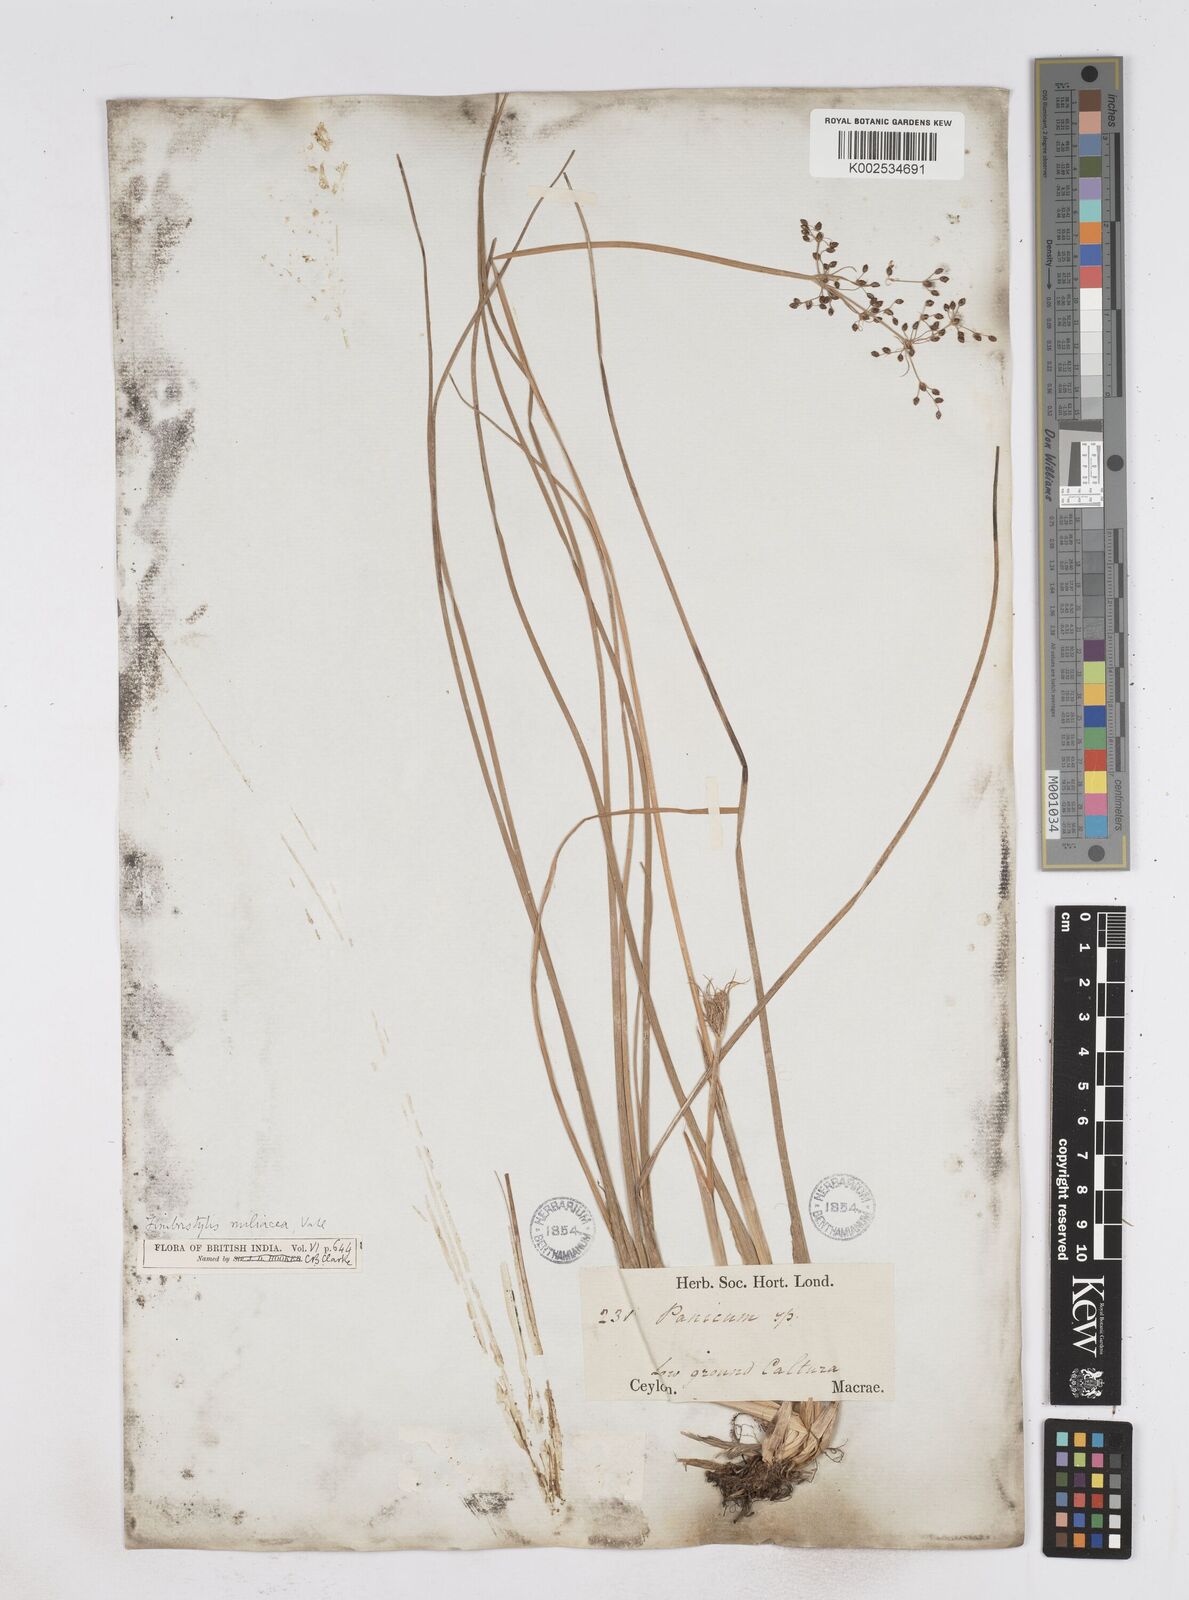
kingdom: Plantae
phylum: Tracheophyta
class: Liliopsida
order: Poales
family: Cyperaceae
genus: Fimbristylis
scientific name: Fimbristylis littoralis
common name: Fimbry
